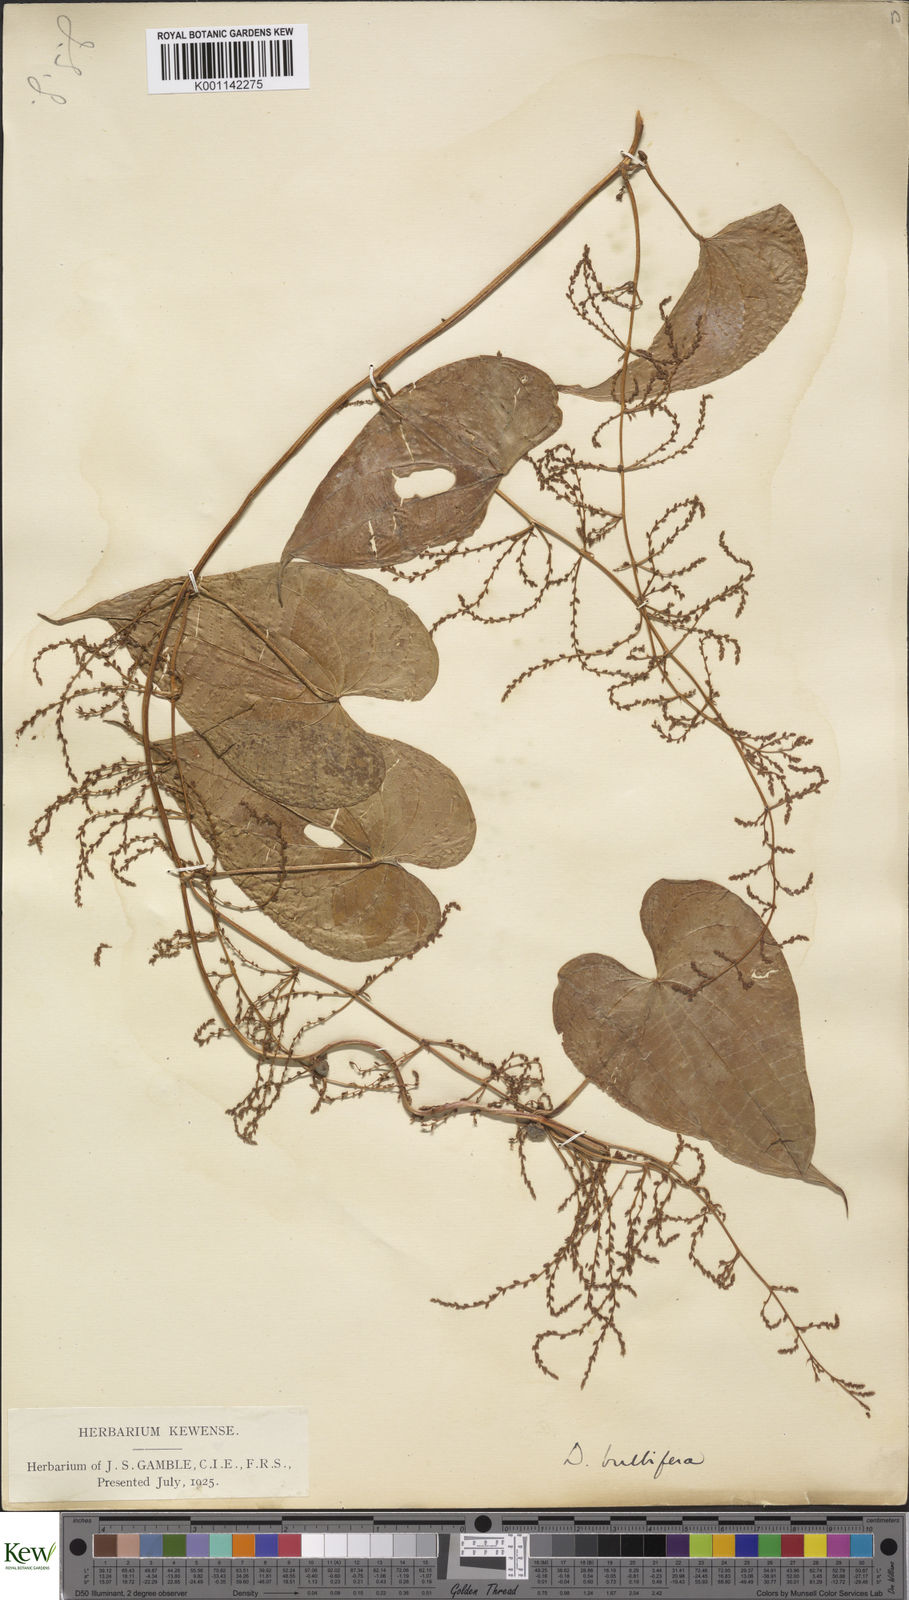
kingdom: Plantae
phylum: Tracheophyta
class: Liliopsida
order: Dioscoreales
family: Dioscoreaceae
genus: Dioscorea
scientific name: Dioscorea bulbifera
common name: Air yam
